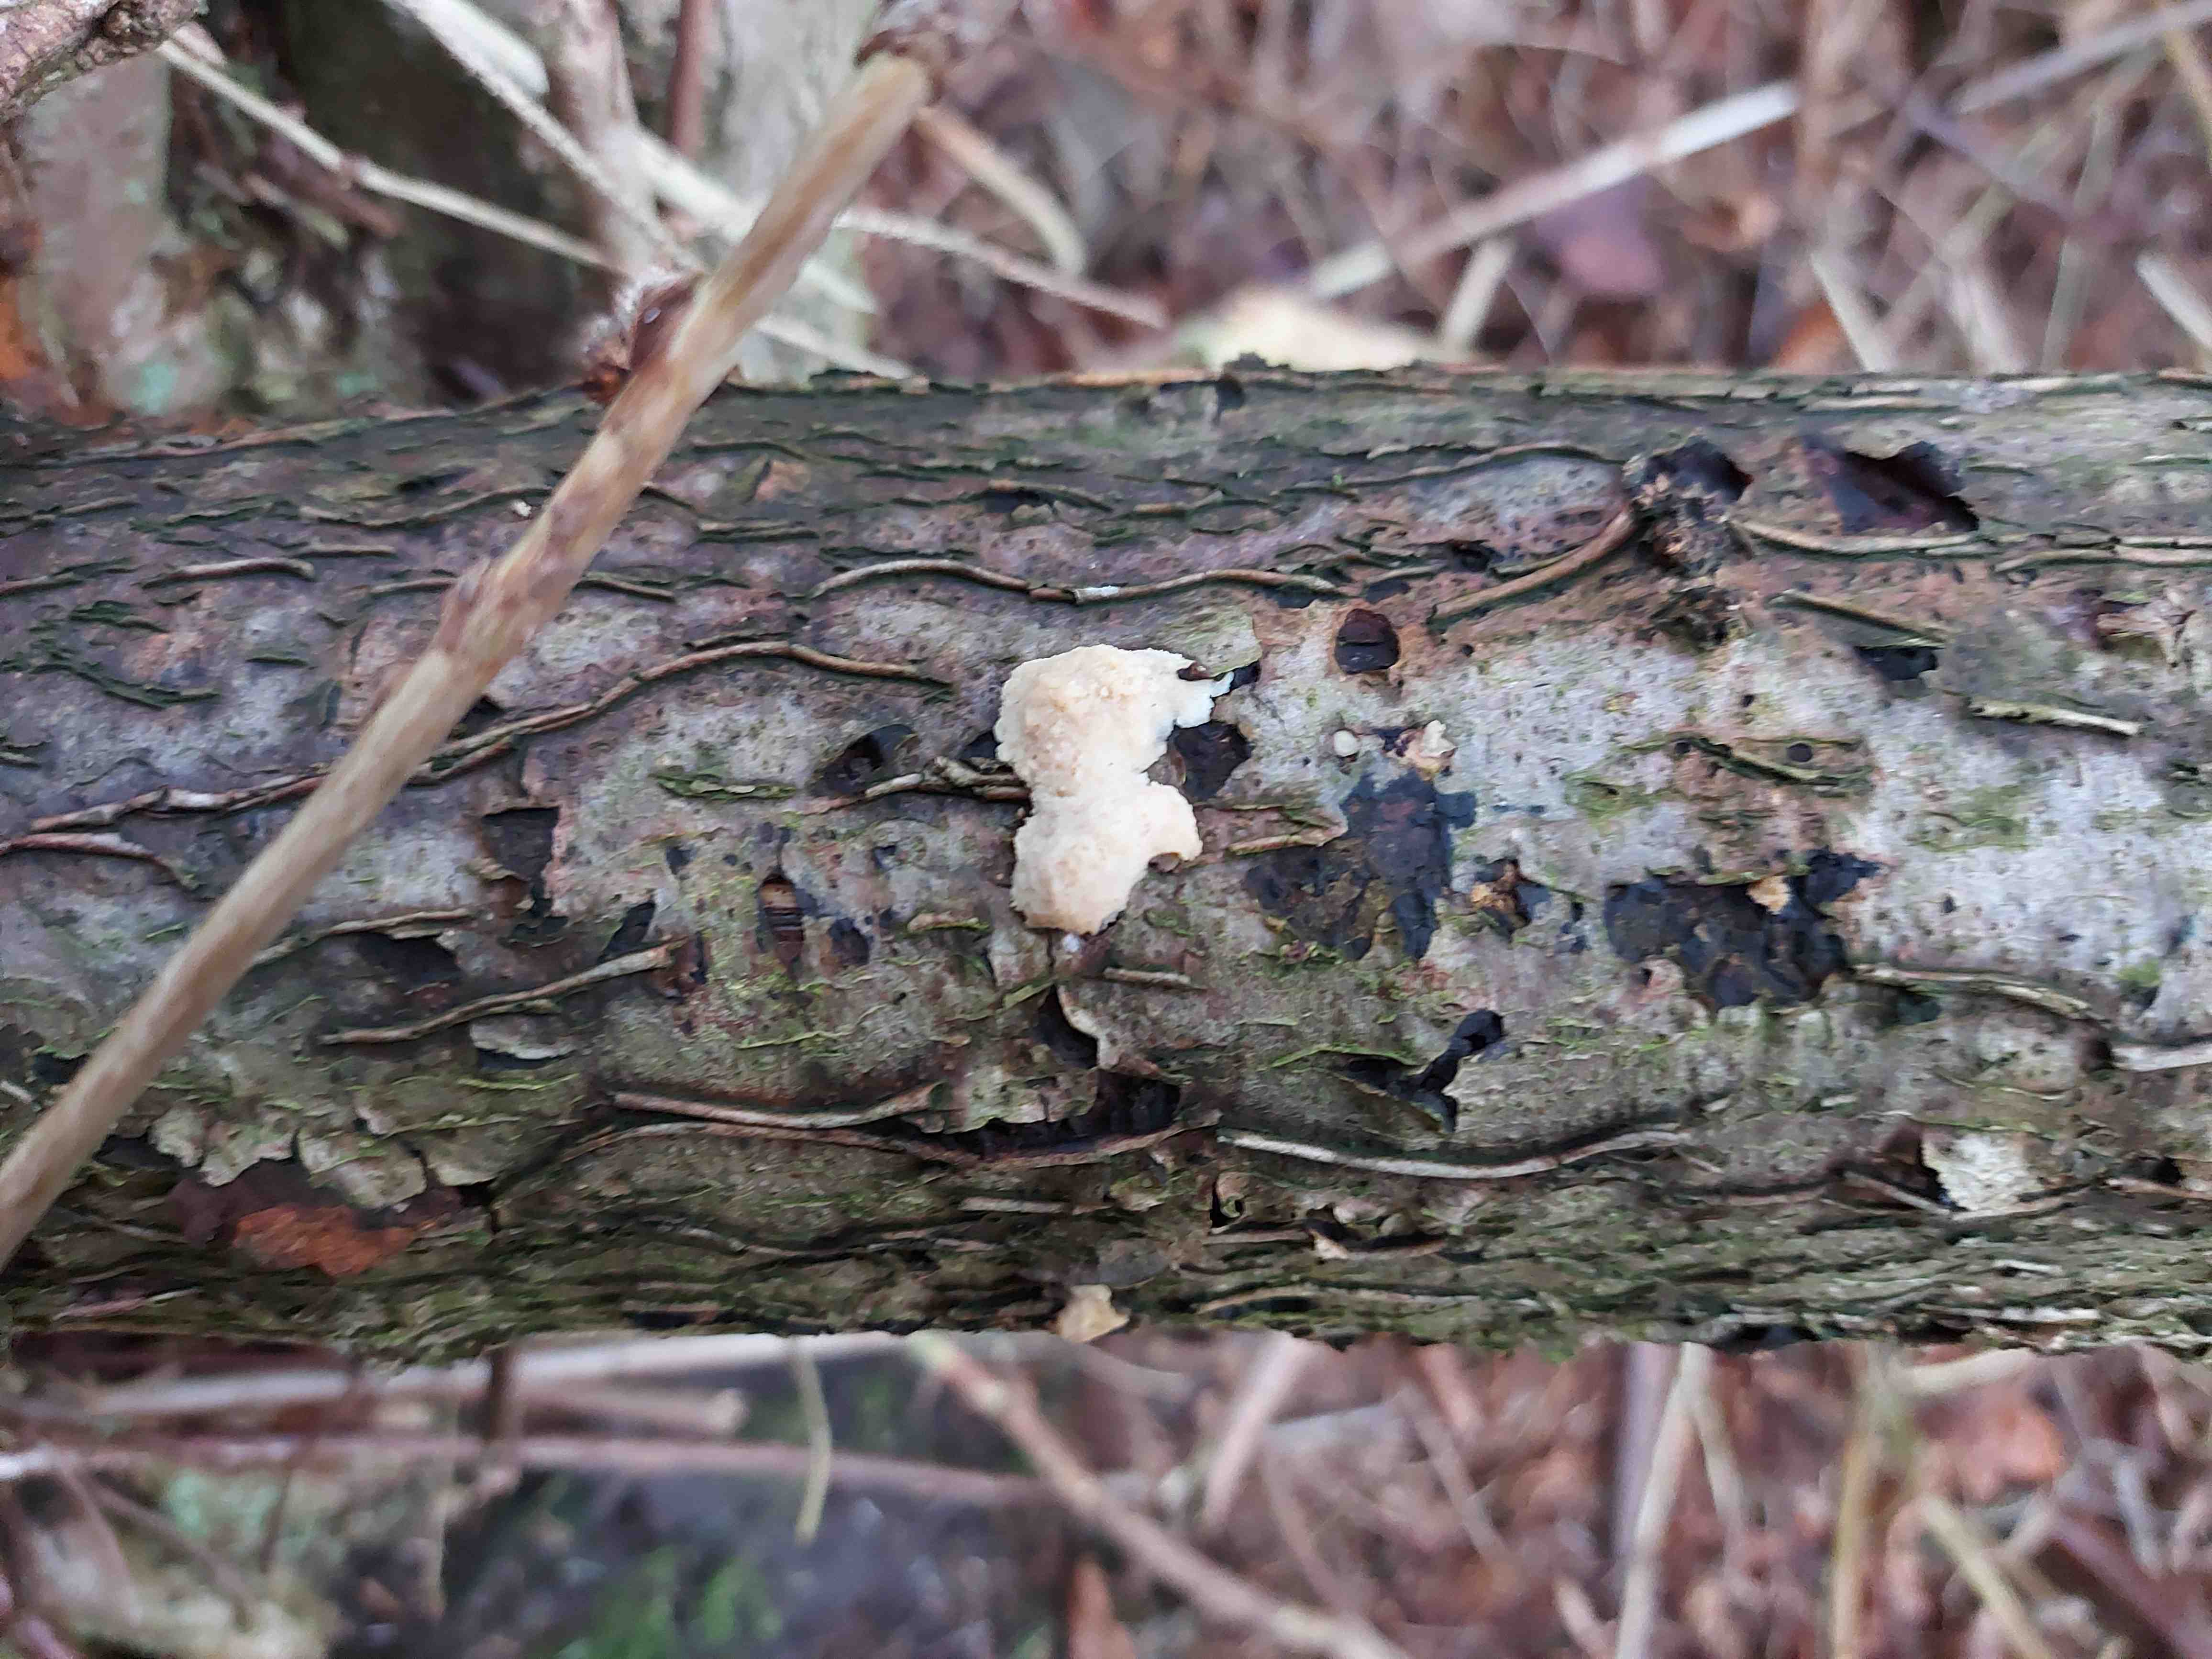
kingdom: Fungi
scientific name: Fungi
